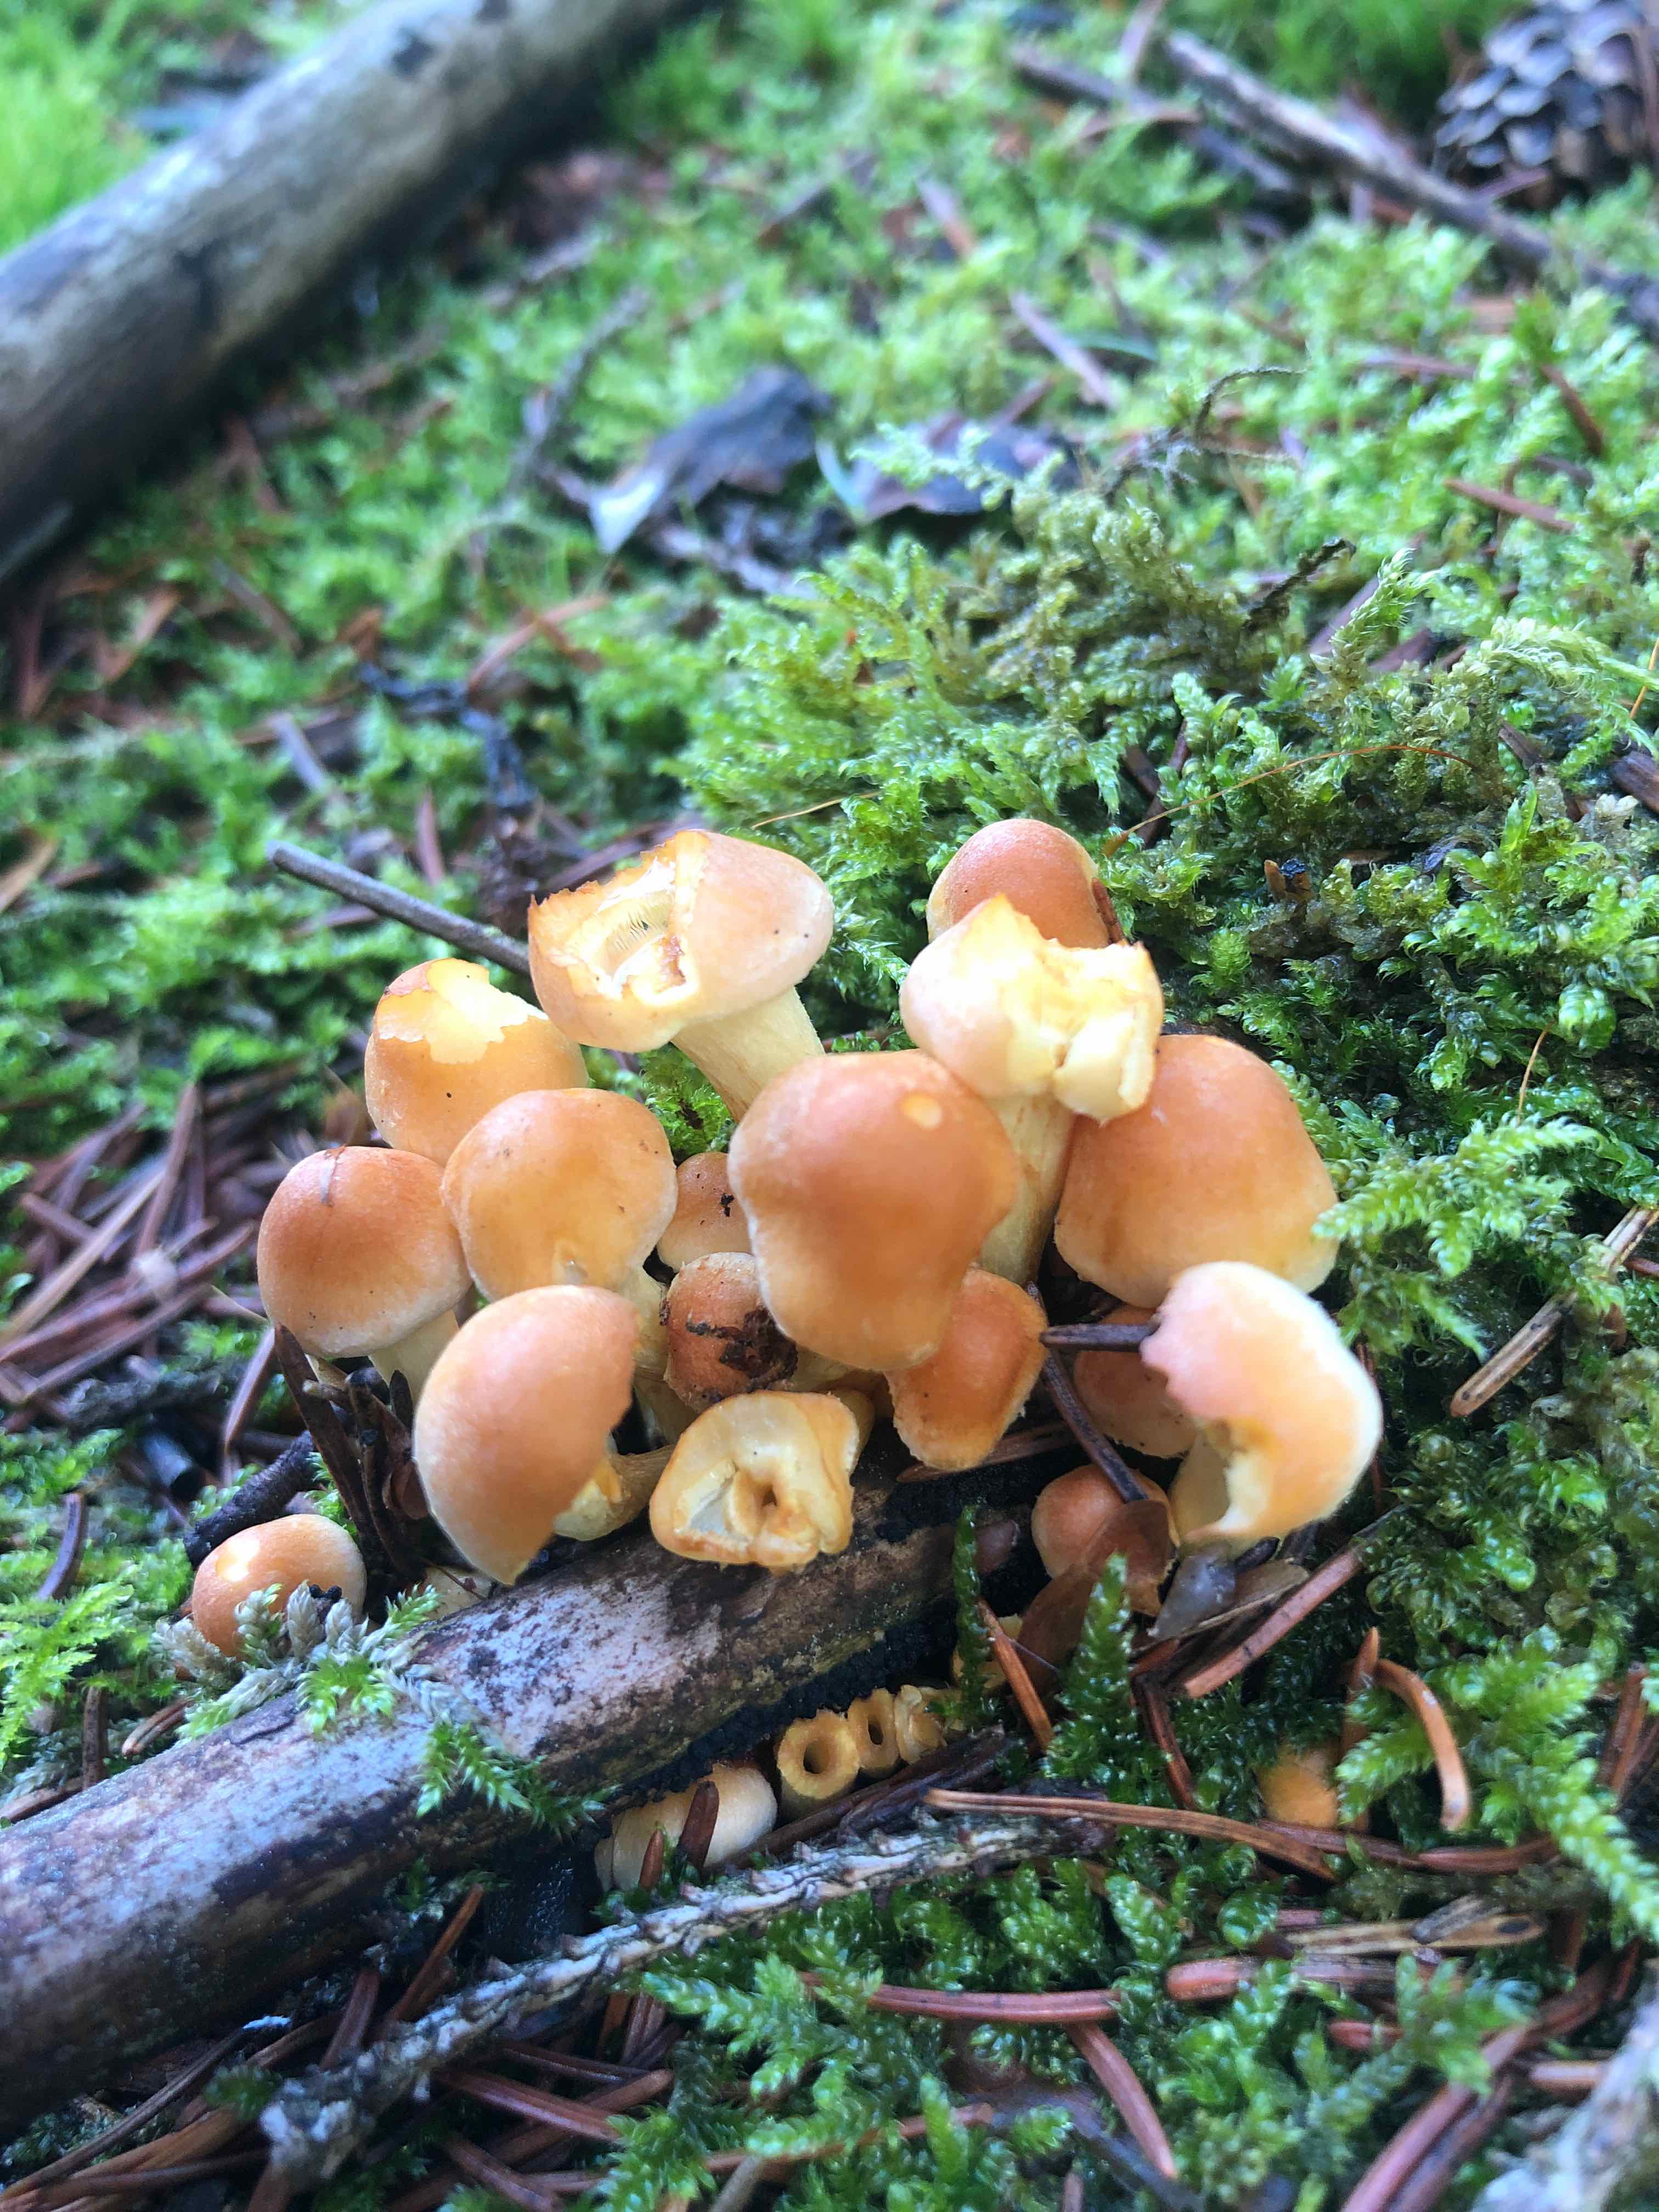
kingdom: Fungi
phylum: Basidiomycota
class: Agaricomycetes
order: Agaricales
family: Strophariaceae
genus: Hypholoma
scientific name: Hypholoma
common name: svovlhat
